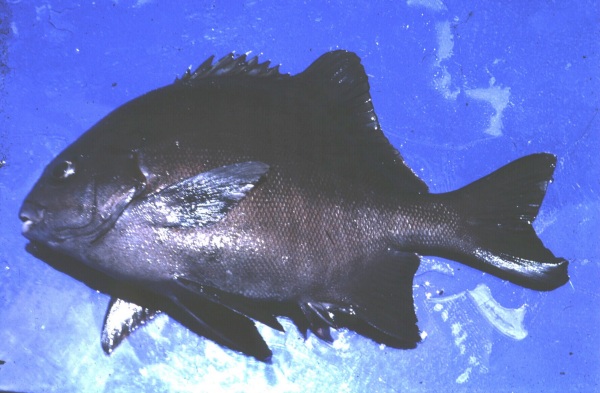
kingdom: Animalia
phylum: Chordata
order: Perciformes
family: Dichistiidae
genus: Dichistius
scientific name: Dichistius multifasciatus
